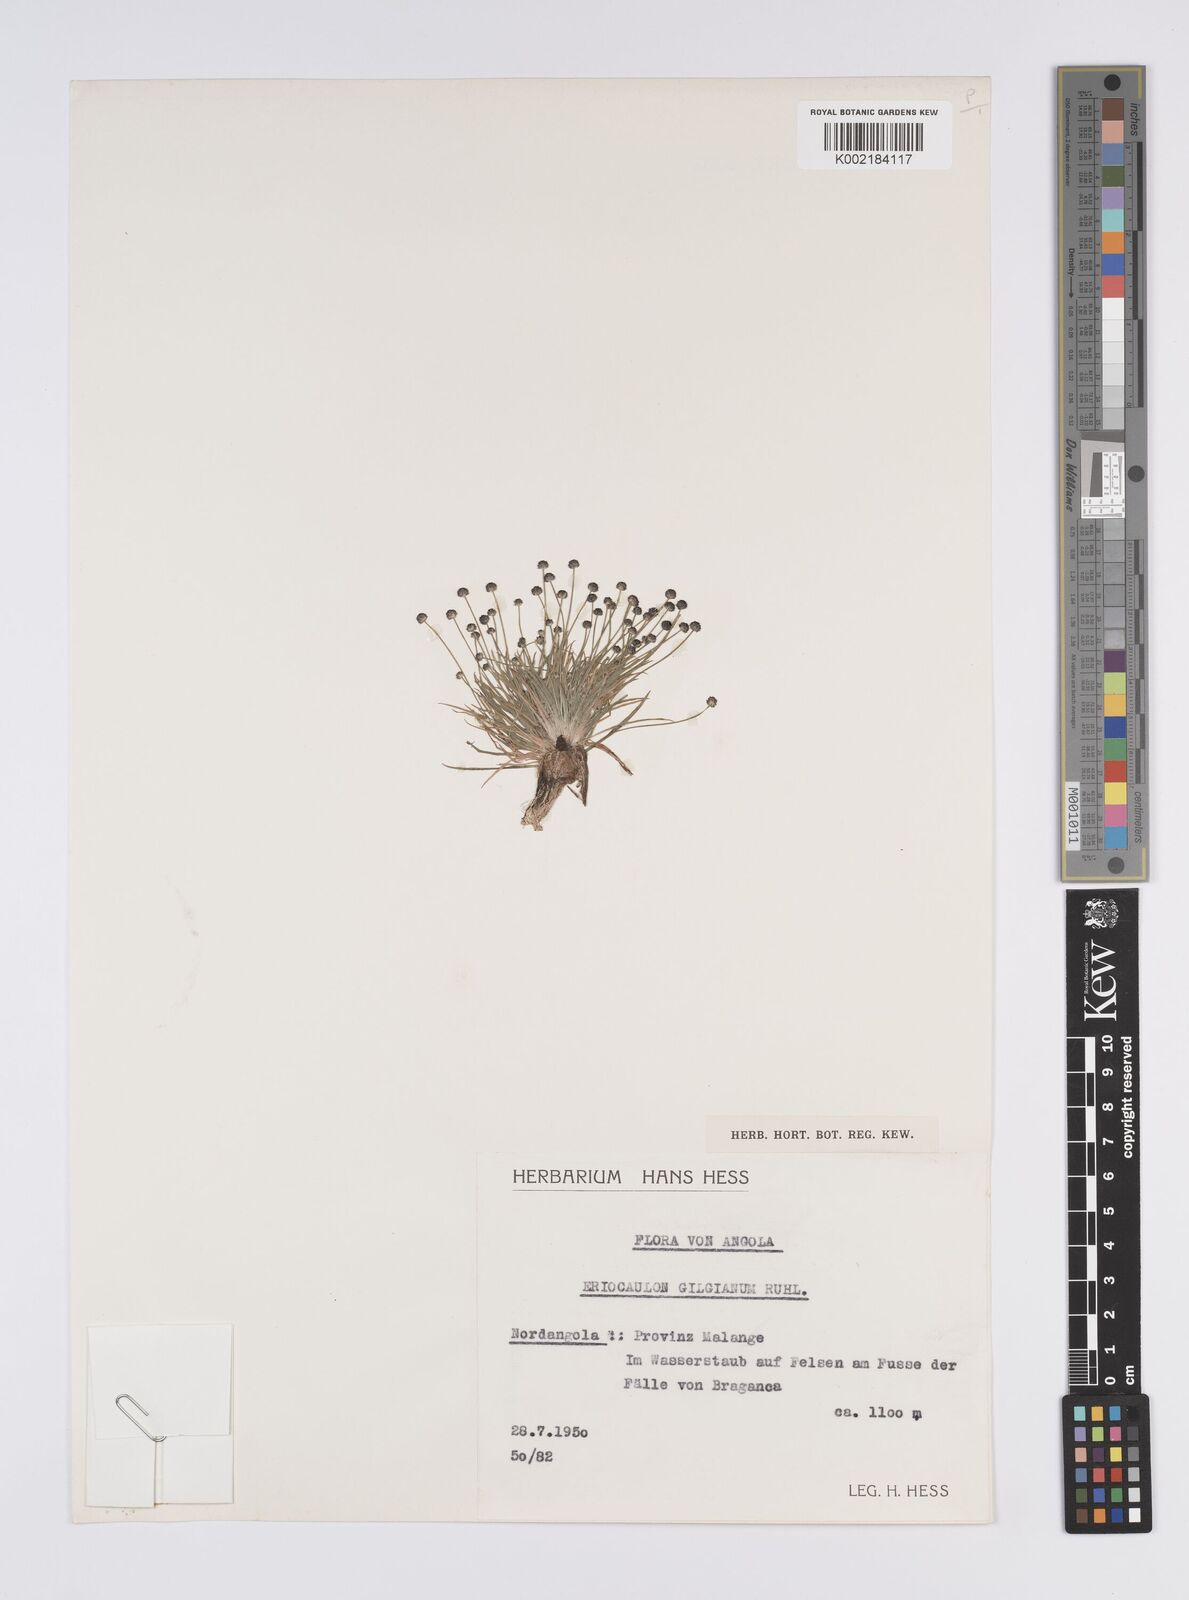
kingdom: Plantae
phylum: Tracheophyta
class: Liliopsida
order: Poales
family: Eriocaulaceae
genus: Eriocaulon
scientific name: Eriocaulon
